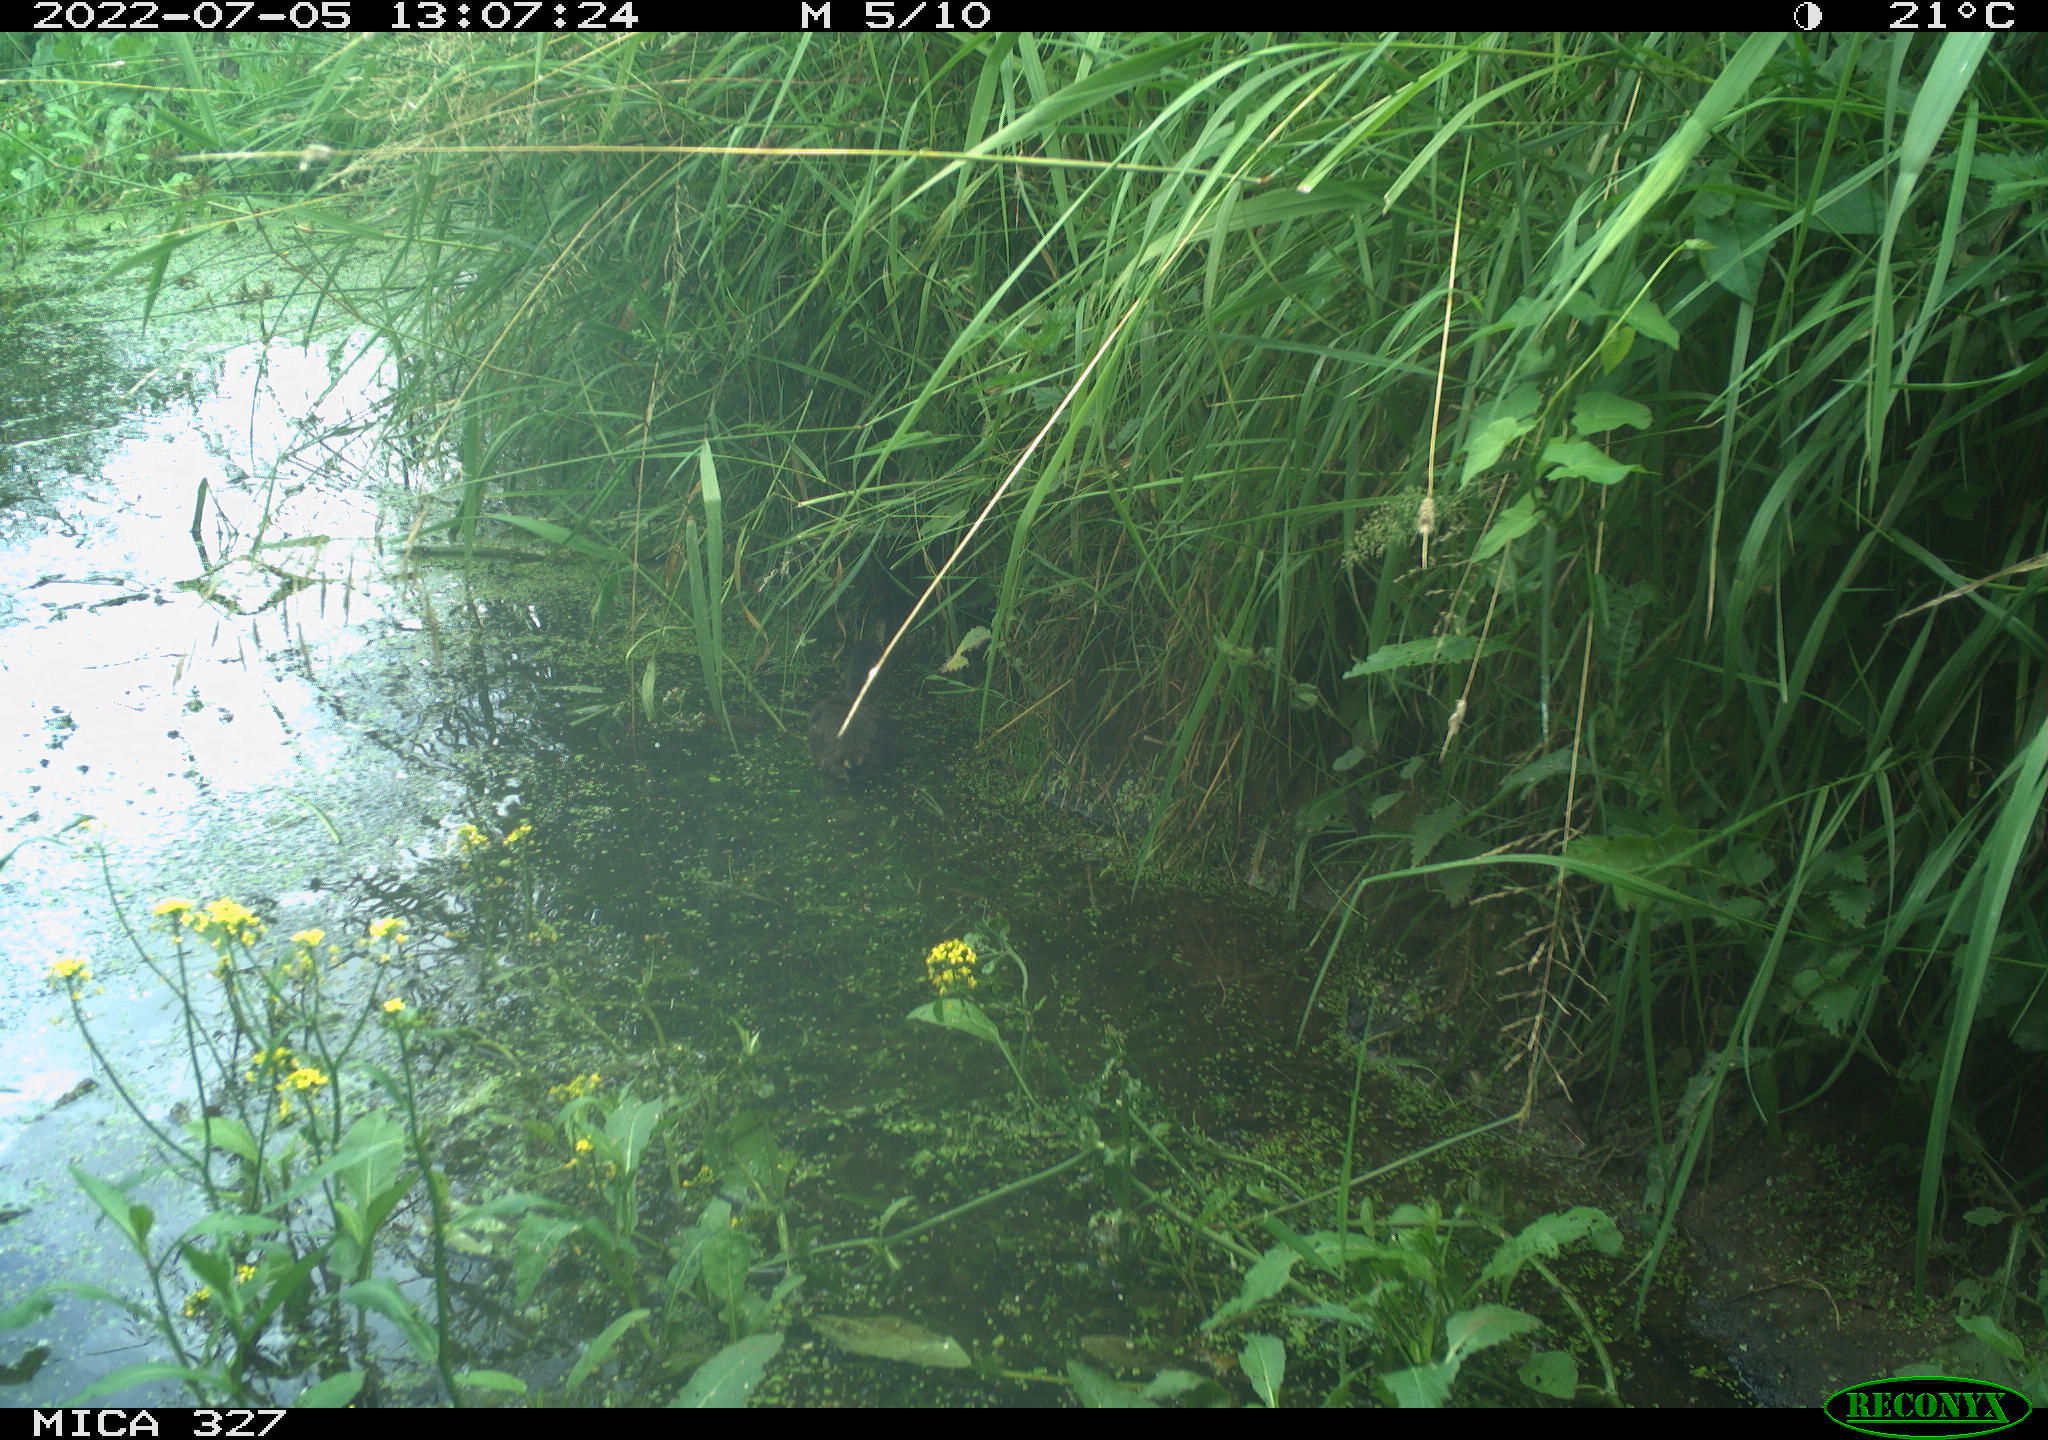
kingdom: Animalia
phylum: Chordata
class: Aves
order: Gruiformes
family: Rallidae
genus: Gallinula
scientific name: Gallinula chloropus
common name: Common moorhen
